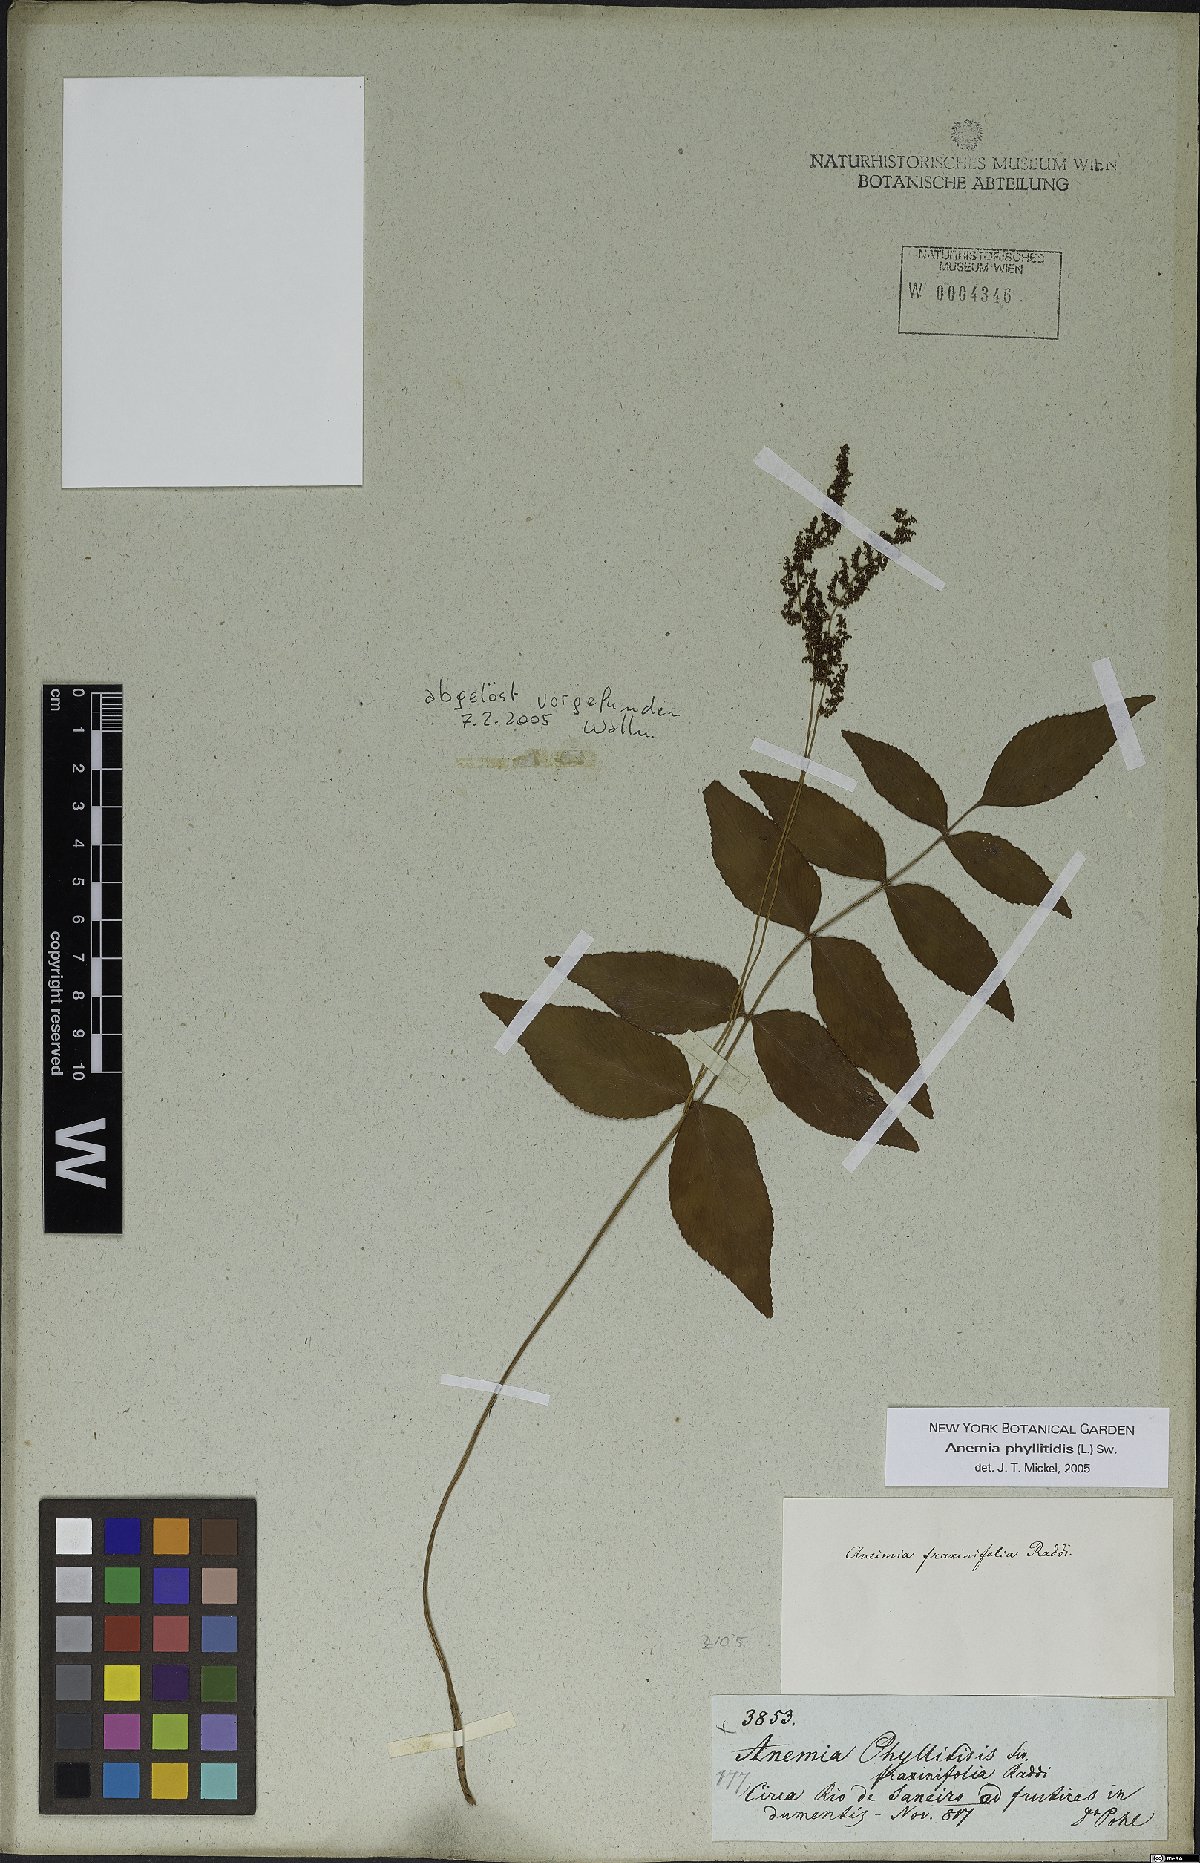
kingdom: Plantae
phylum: Tracheophyta
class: Polypodiopsida
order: Schizaeales
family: Anemiaceae
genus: Anemia
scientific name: Anemia phyllitidis
